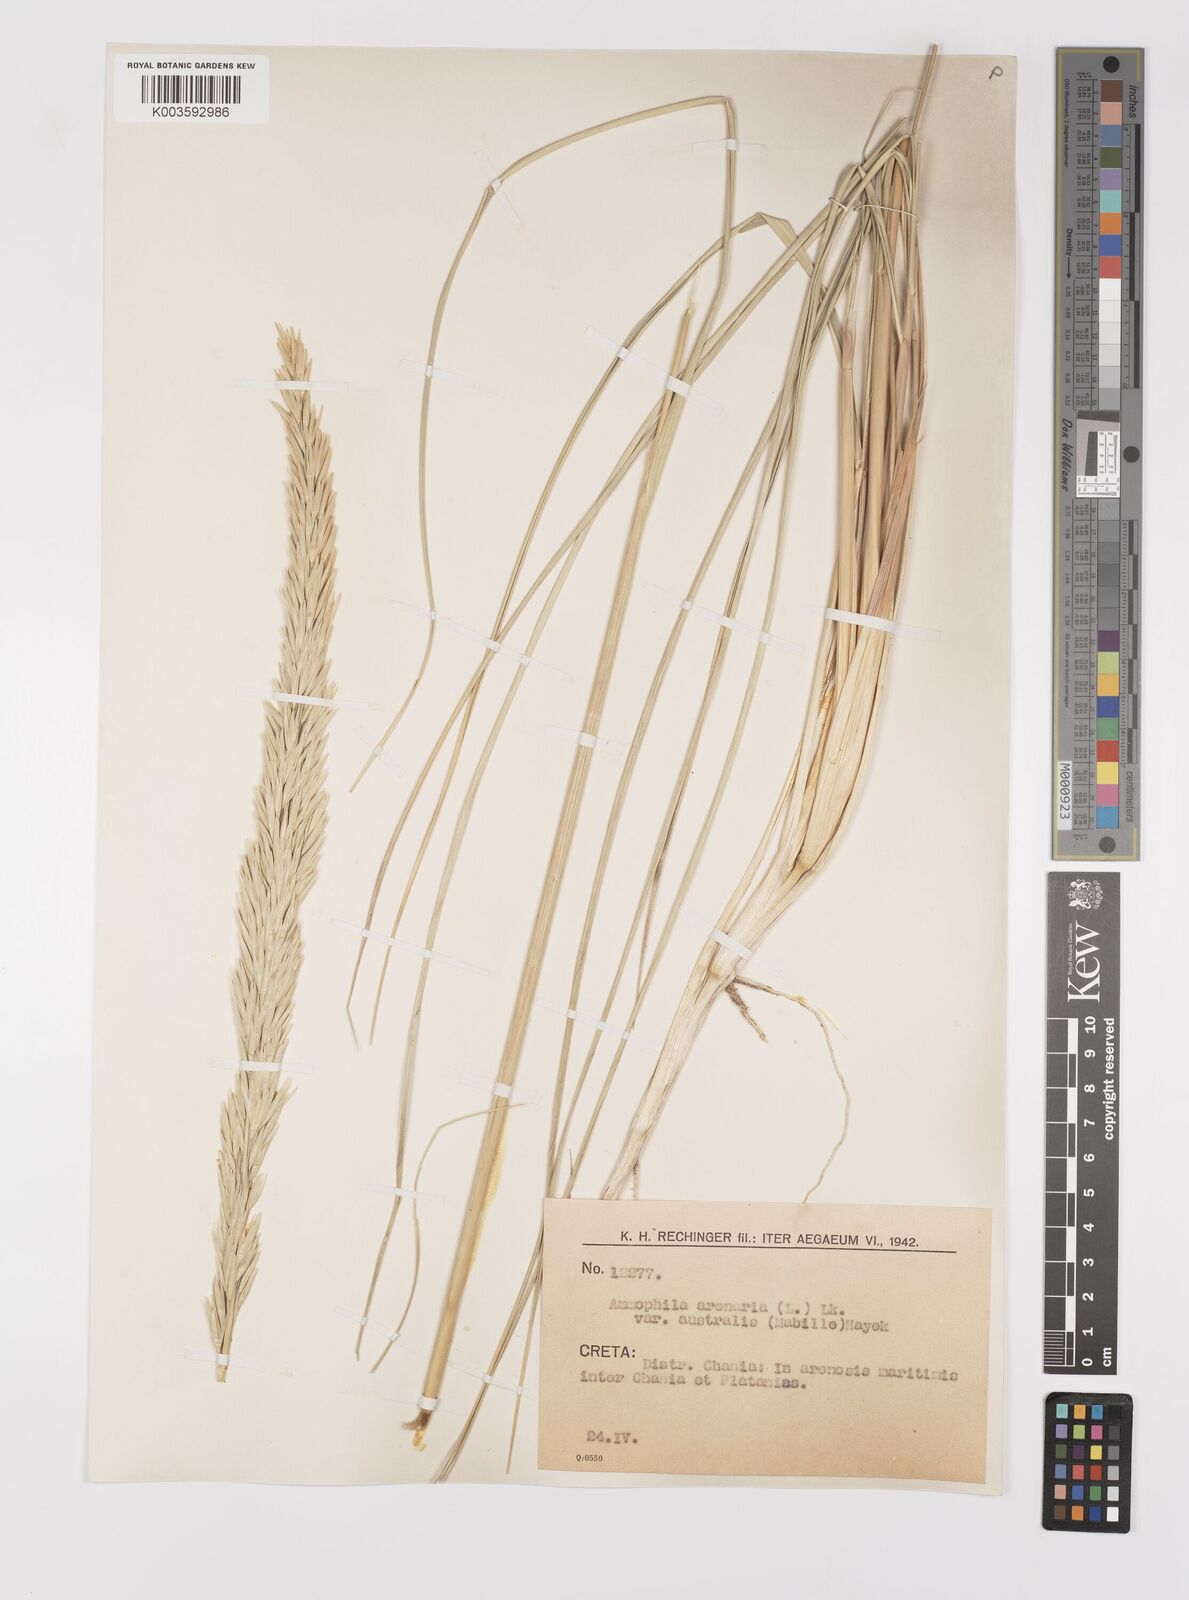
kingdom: Plantae
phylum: Tracheophyta
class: Liliopsida
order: Poales
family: Poaceae
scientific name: Poaceae
